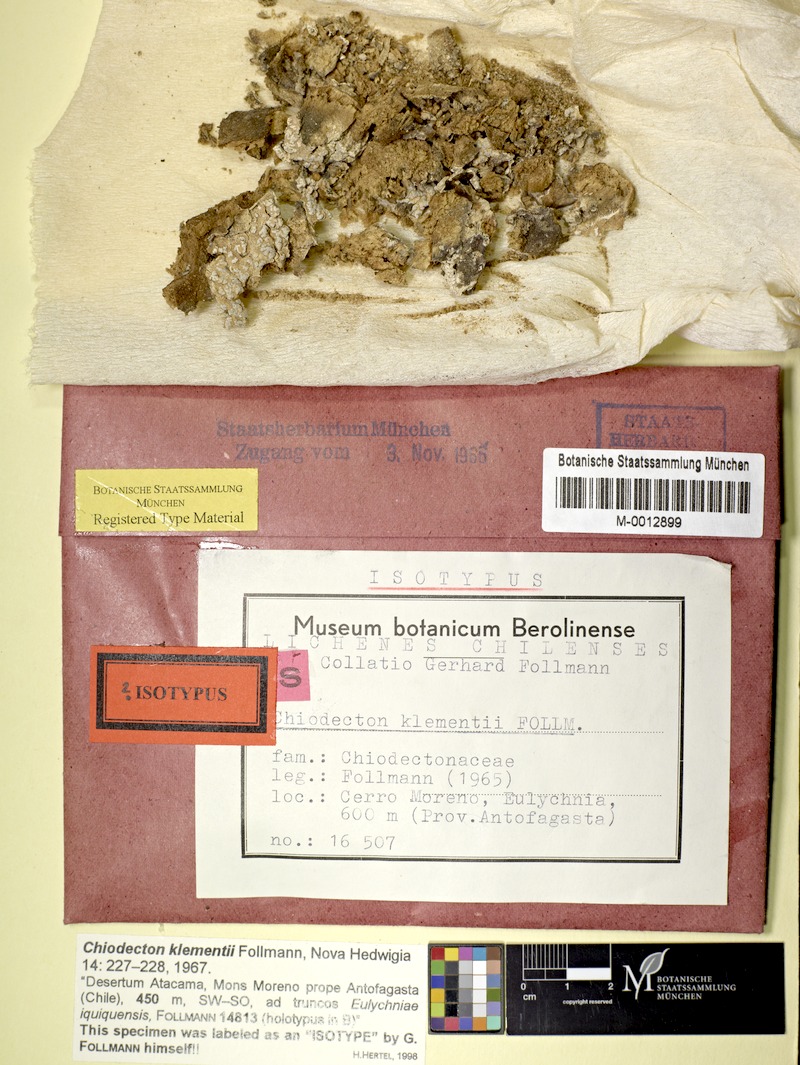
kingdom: Fungi
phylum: Ascomycota
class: Arthoniomycetes
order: Arthoniales
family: Roccellographaceae
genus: Fulvophyton
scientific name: Fulvophyton klementii
